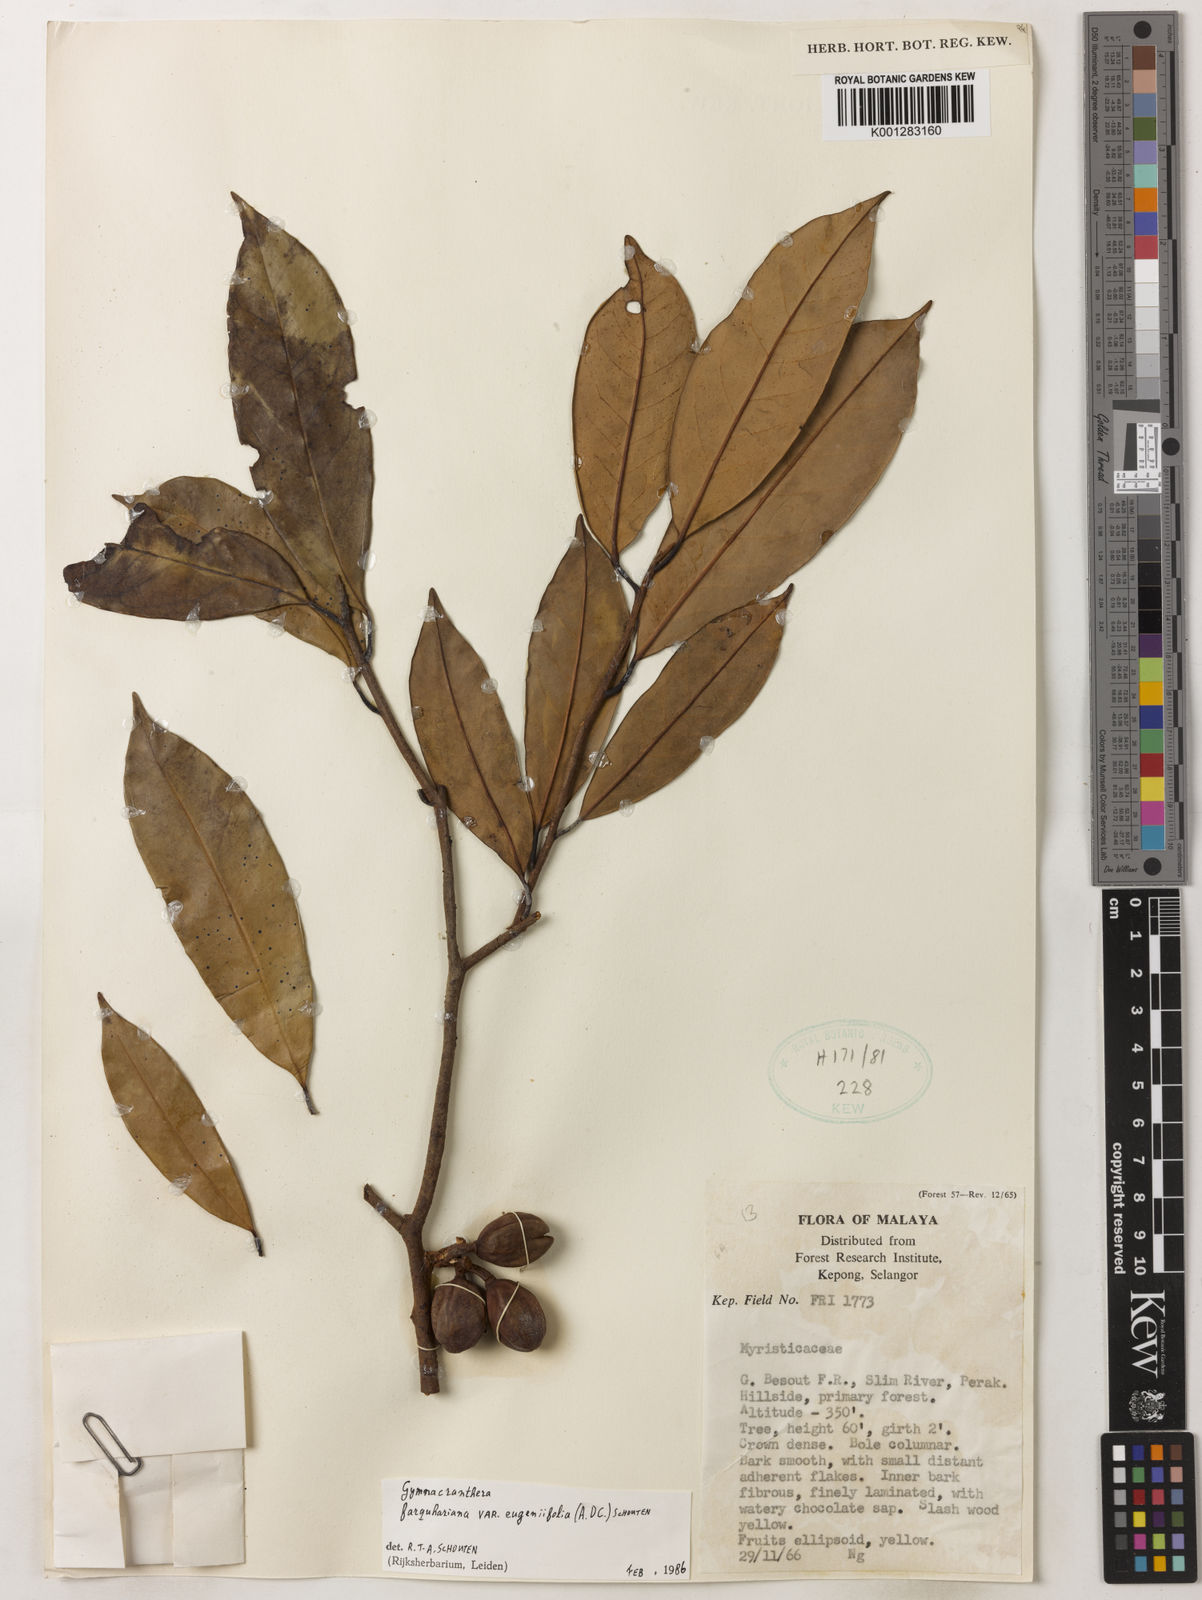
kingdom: Plantae
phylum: Tracheophyta
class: Magnoliopsida
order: Magnoliales
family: Myristicaceae
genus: Gymnacranthera
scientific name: Gymnacranthera farquhariana
